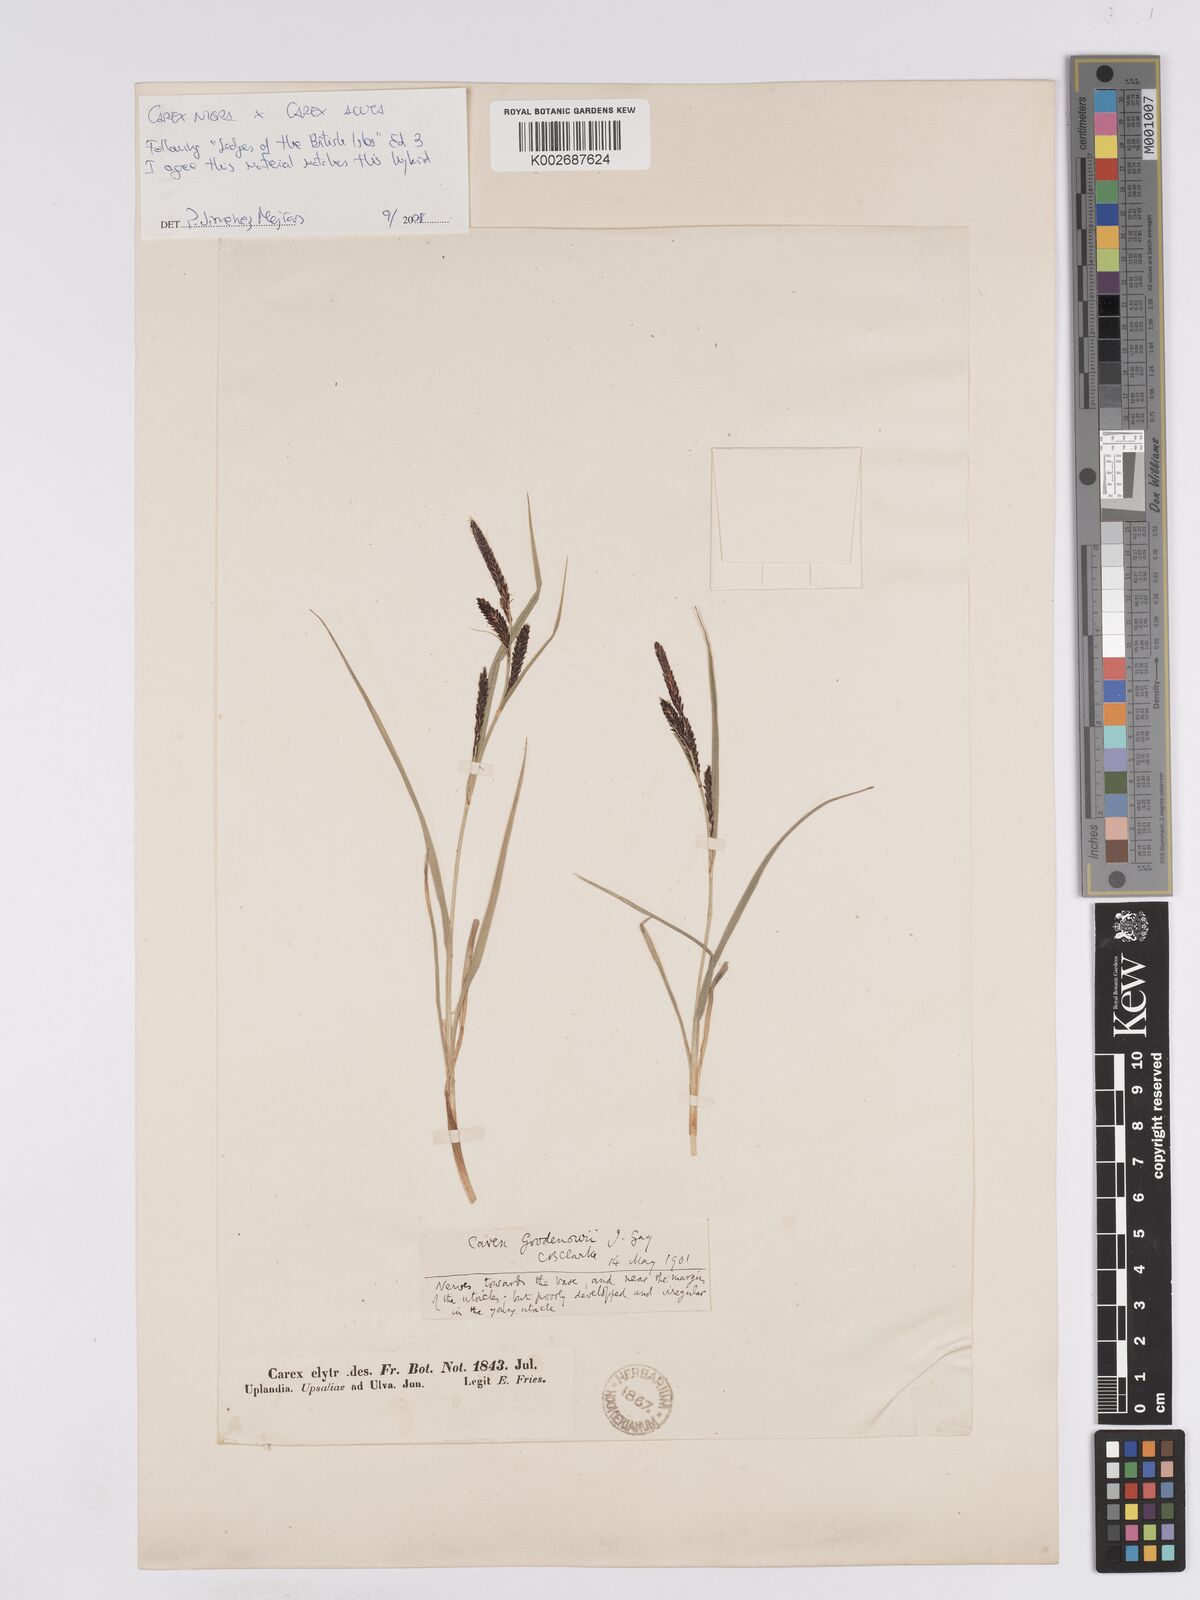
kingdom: Plantae
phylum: Tracheophyta
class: Liliopsida
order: Poales
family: Cyperaceae
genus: Carex
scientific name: Carex nigra
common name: Common sedge
